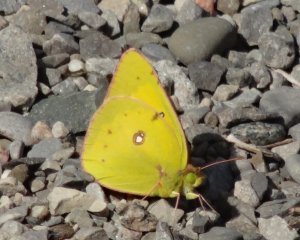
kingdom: Animalia
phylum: Arthropoda
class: Insecta
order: Lepidoptera
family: Pieridae
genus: Colias
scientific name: Colias eurytheme
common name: Orange Sulphur
